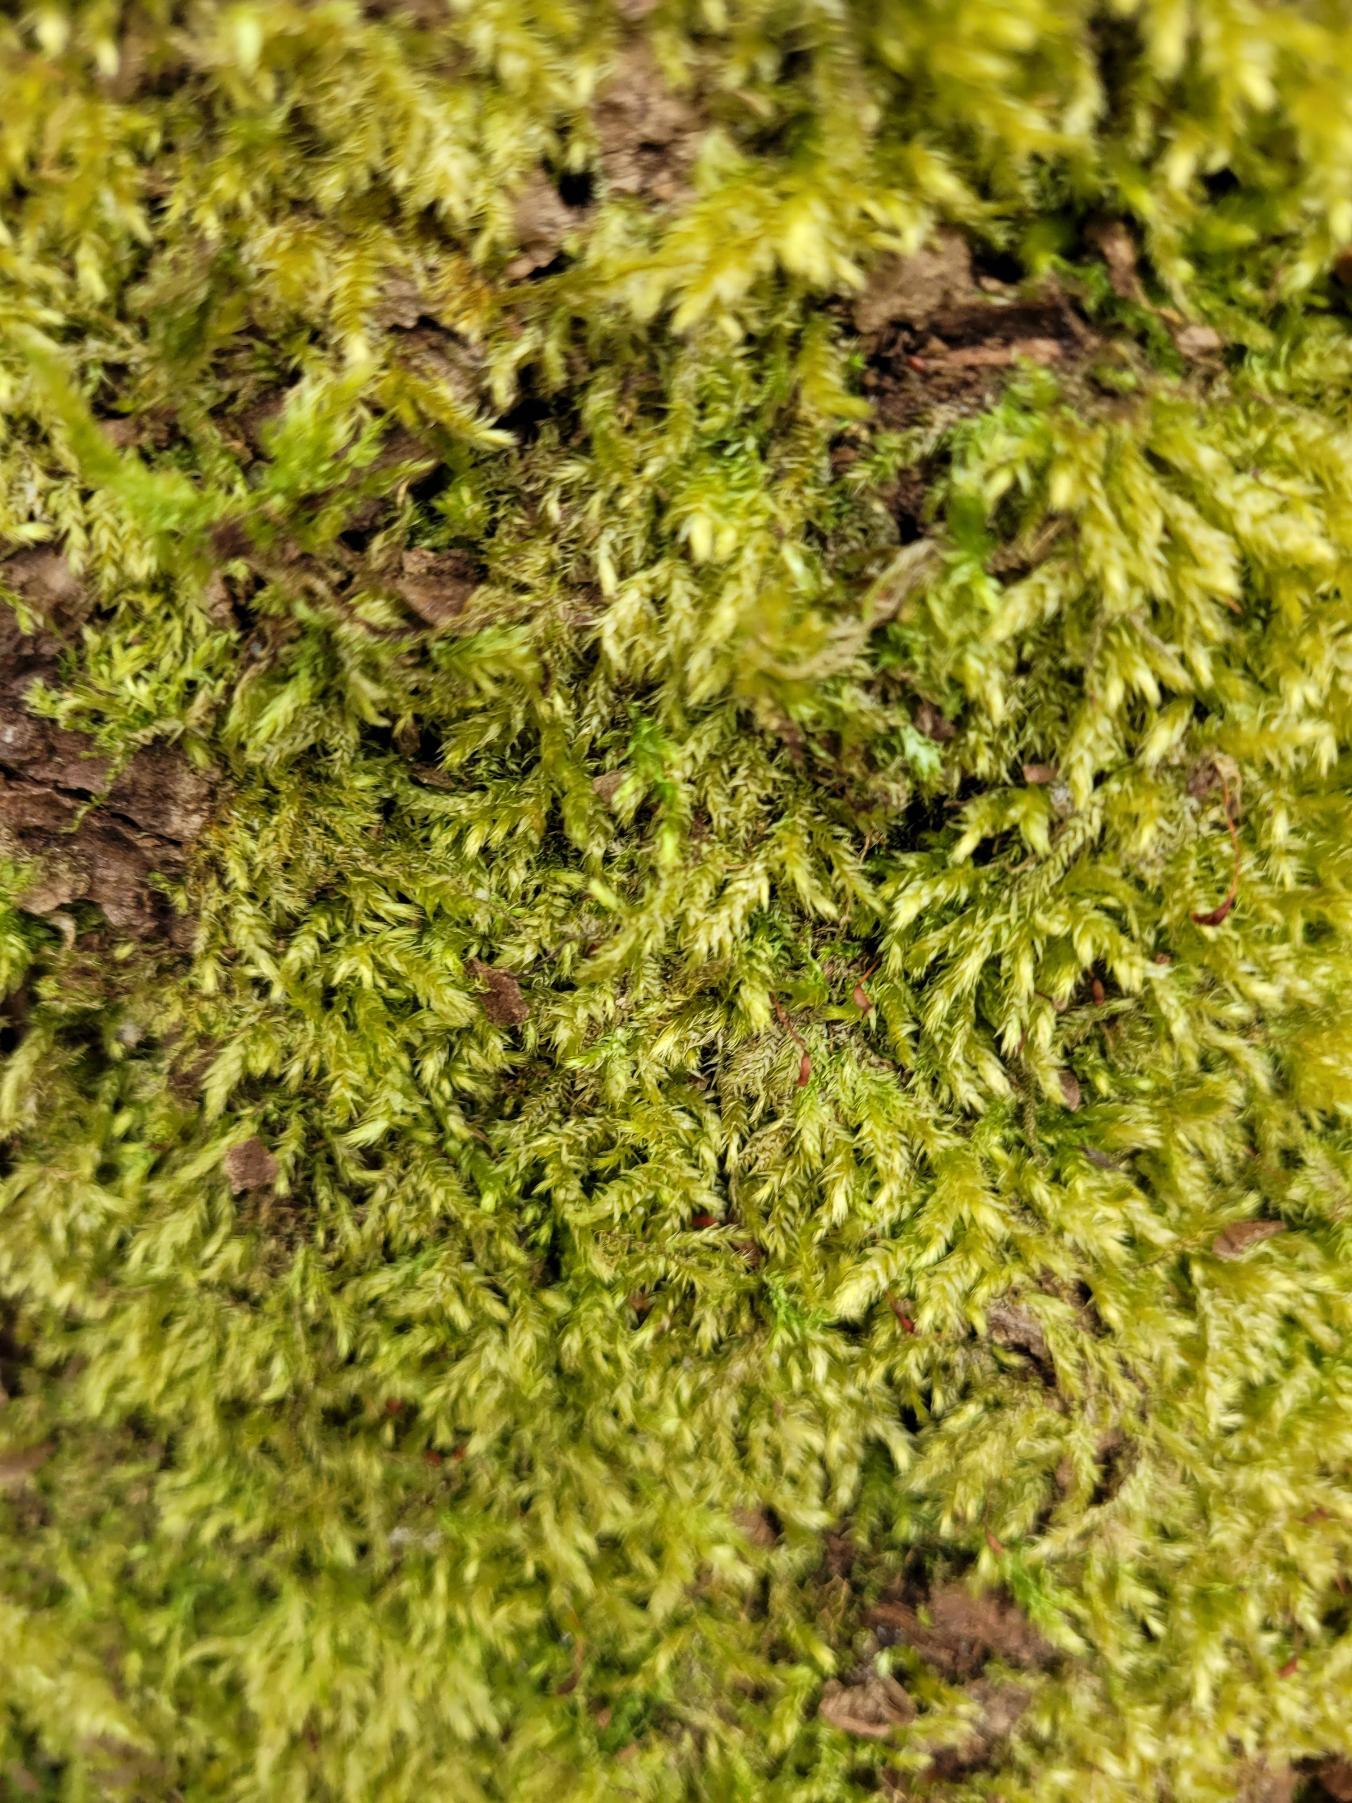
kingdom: Plantae
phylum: Bryophyta
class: Bryopsida
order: Hypnales
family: Brachytheciaceae
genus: Brachythecium
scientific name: Brachythecium rutabulum
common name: Almindelig kortkapsel
